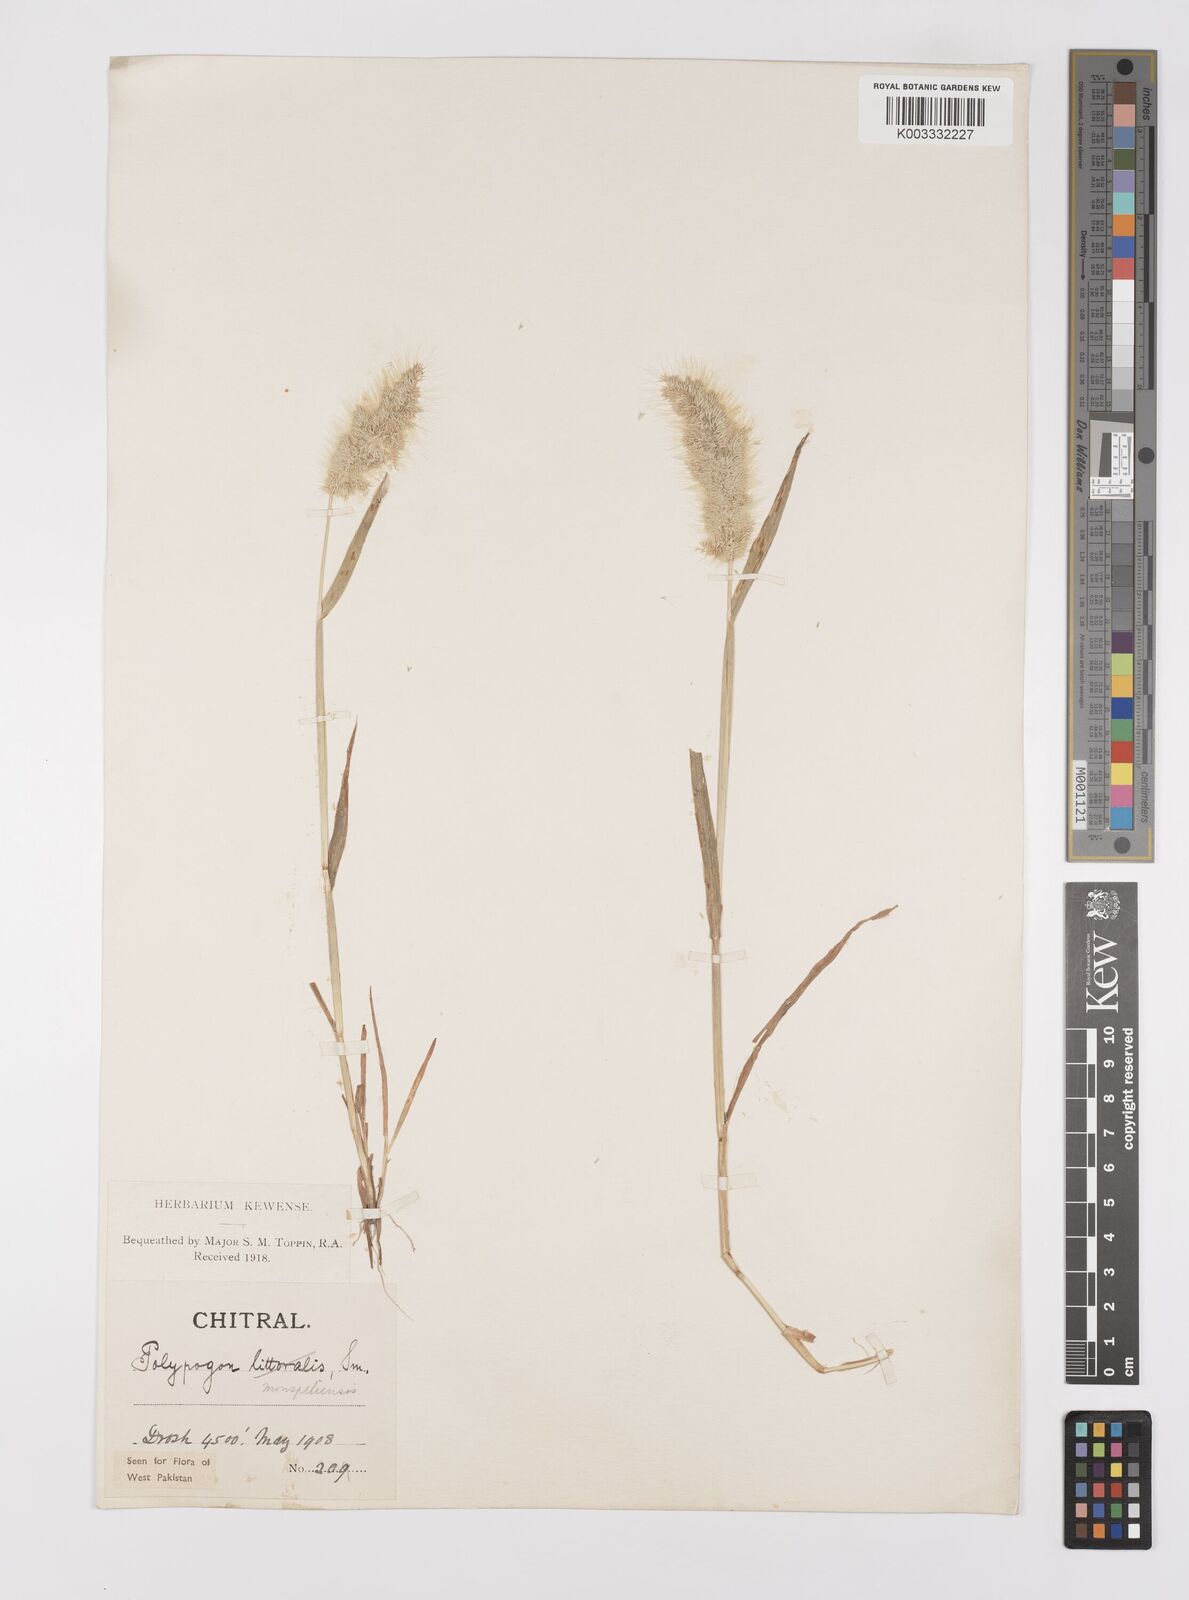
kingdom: Plantae
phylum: Tracheophyta
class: Liliopsida
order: Poales
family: Poaceae
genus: Polypogon
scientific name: Polypogon monspeliensis
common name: Annual rabbitsfoot grass
